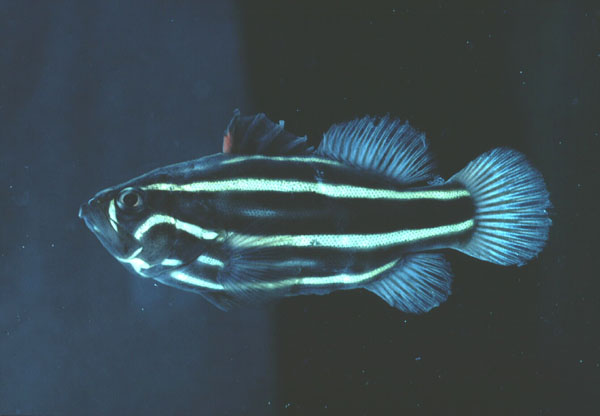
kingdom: Animalia
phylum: Chordata
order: Perciformes
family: Serranidae
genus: Grammistes
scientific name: Grammistes sexlineatus
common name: Sixline soapfish
